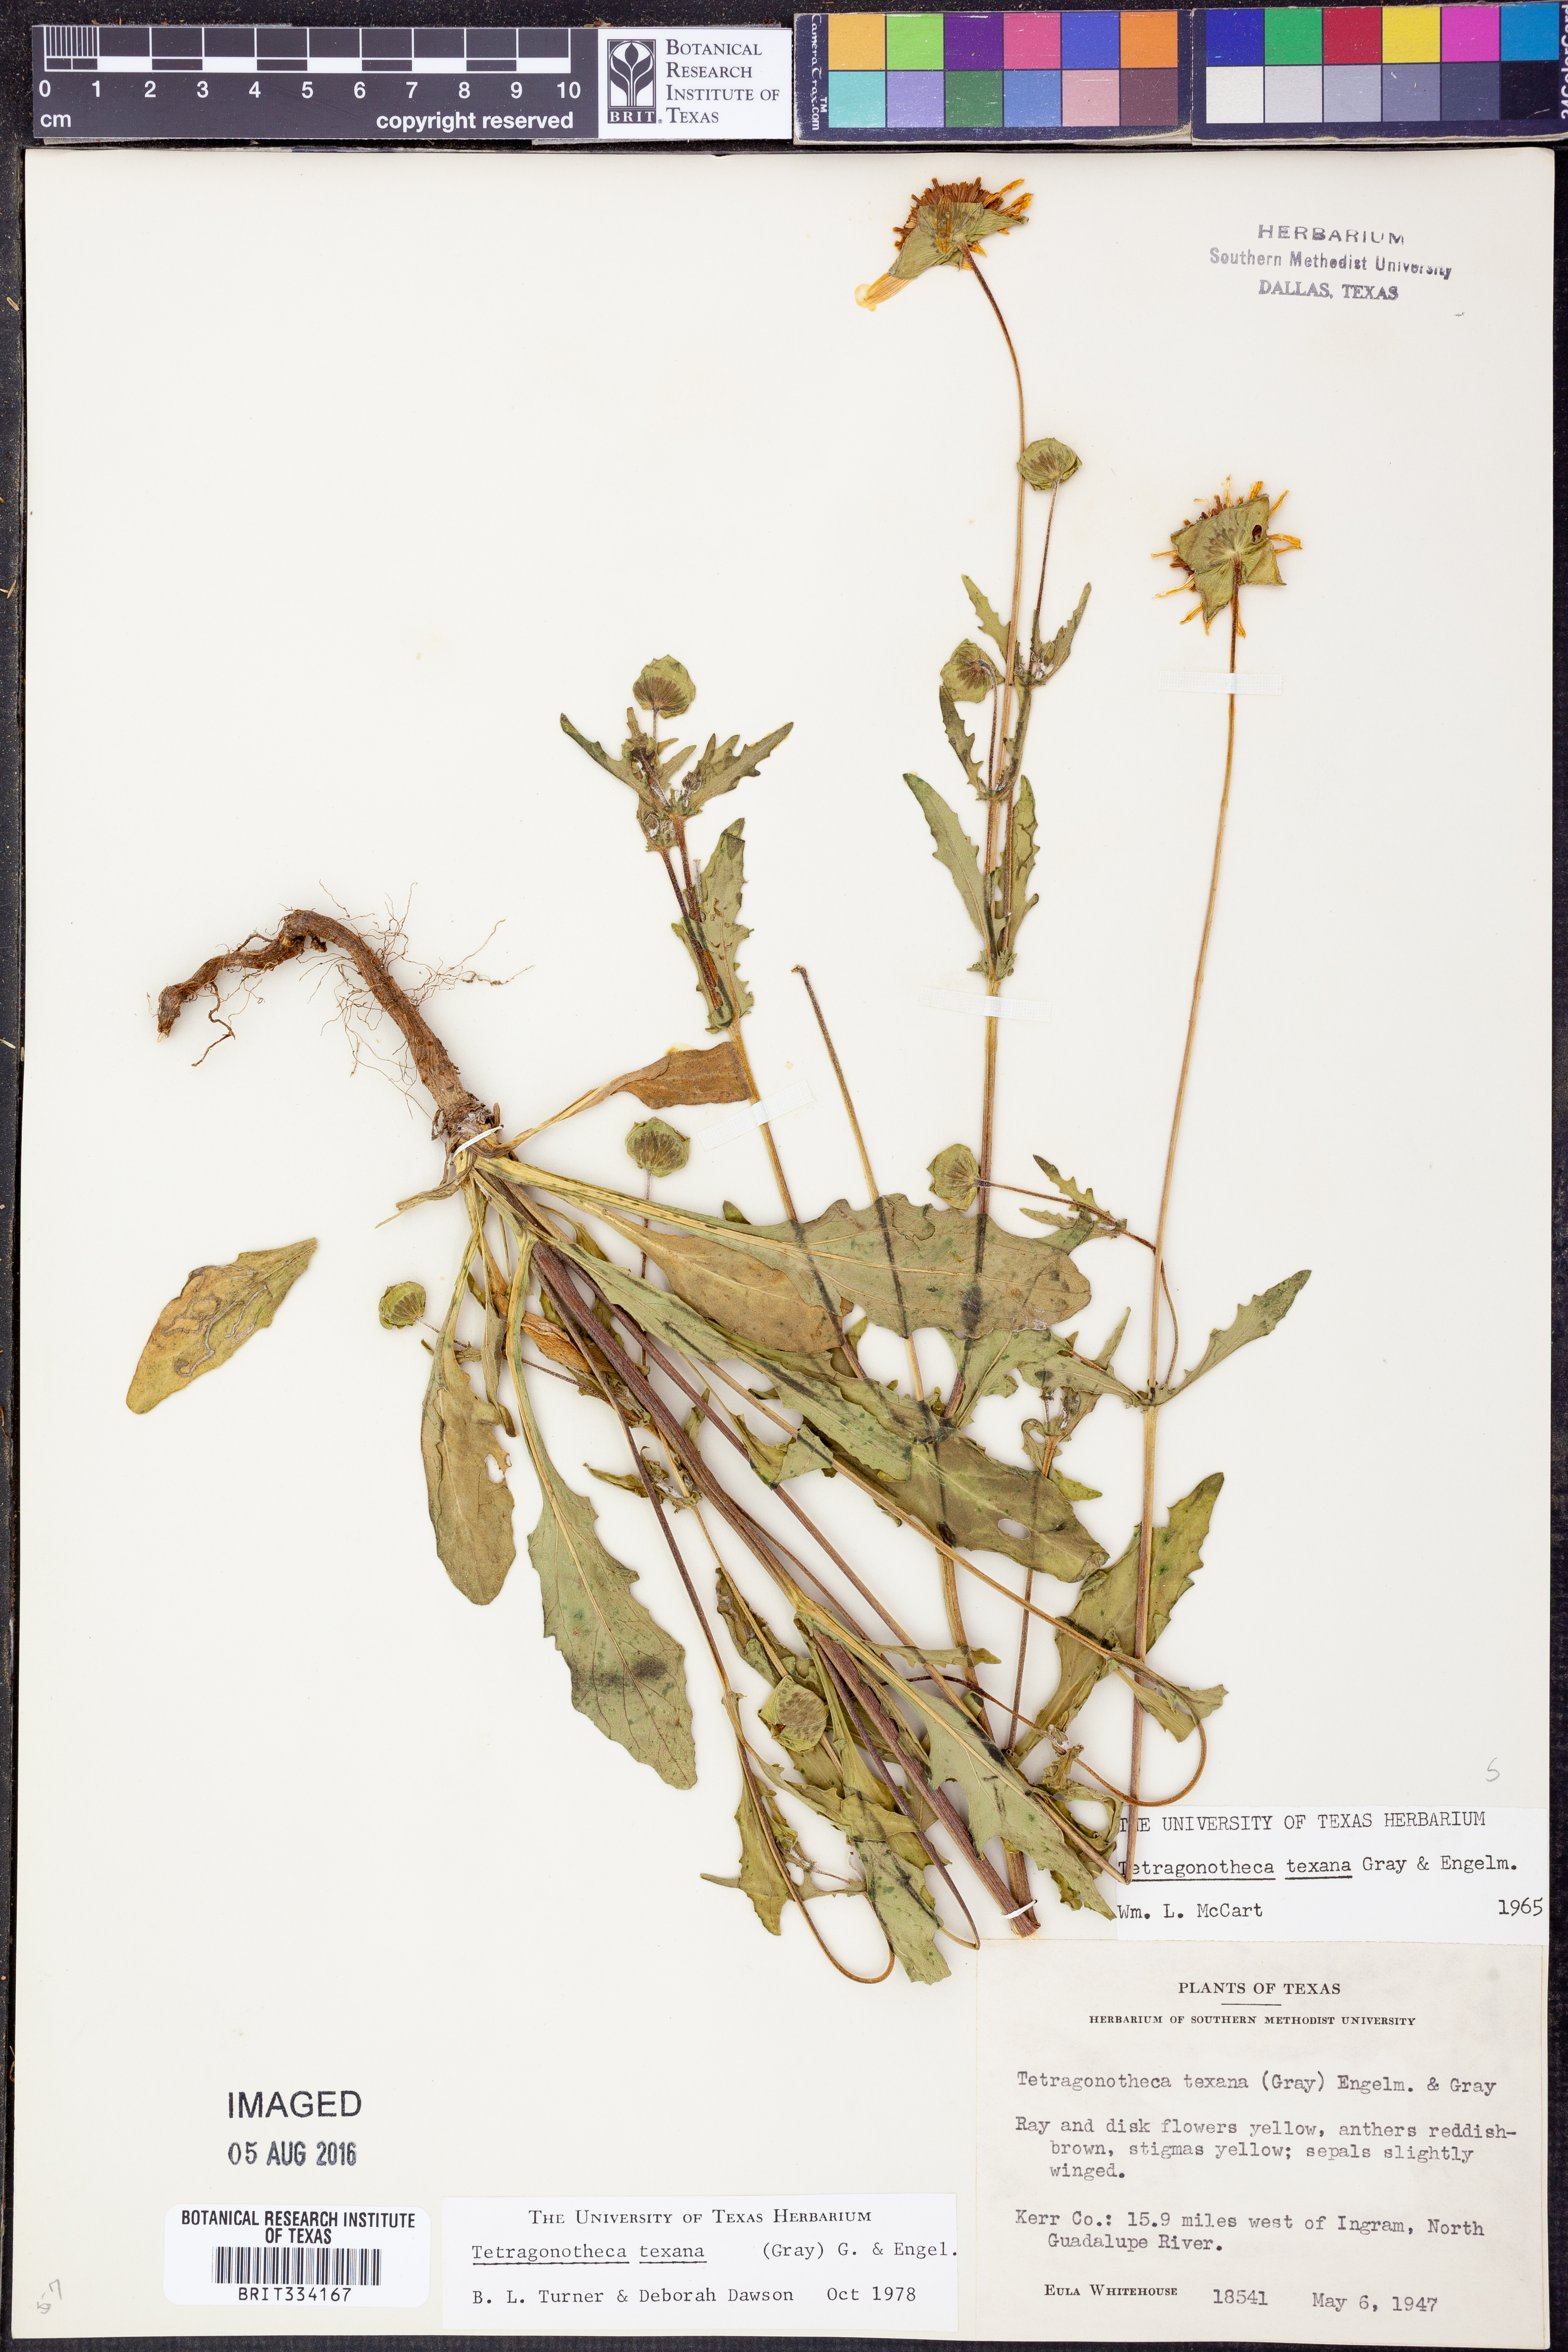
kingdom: Plantae
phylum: Tracheophyta
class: Magnoliopsida
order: Asterales
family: Asteraceae
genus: Tetragonotheca
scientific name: Tetragonotheca texana
